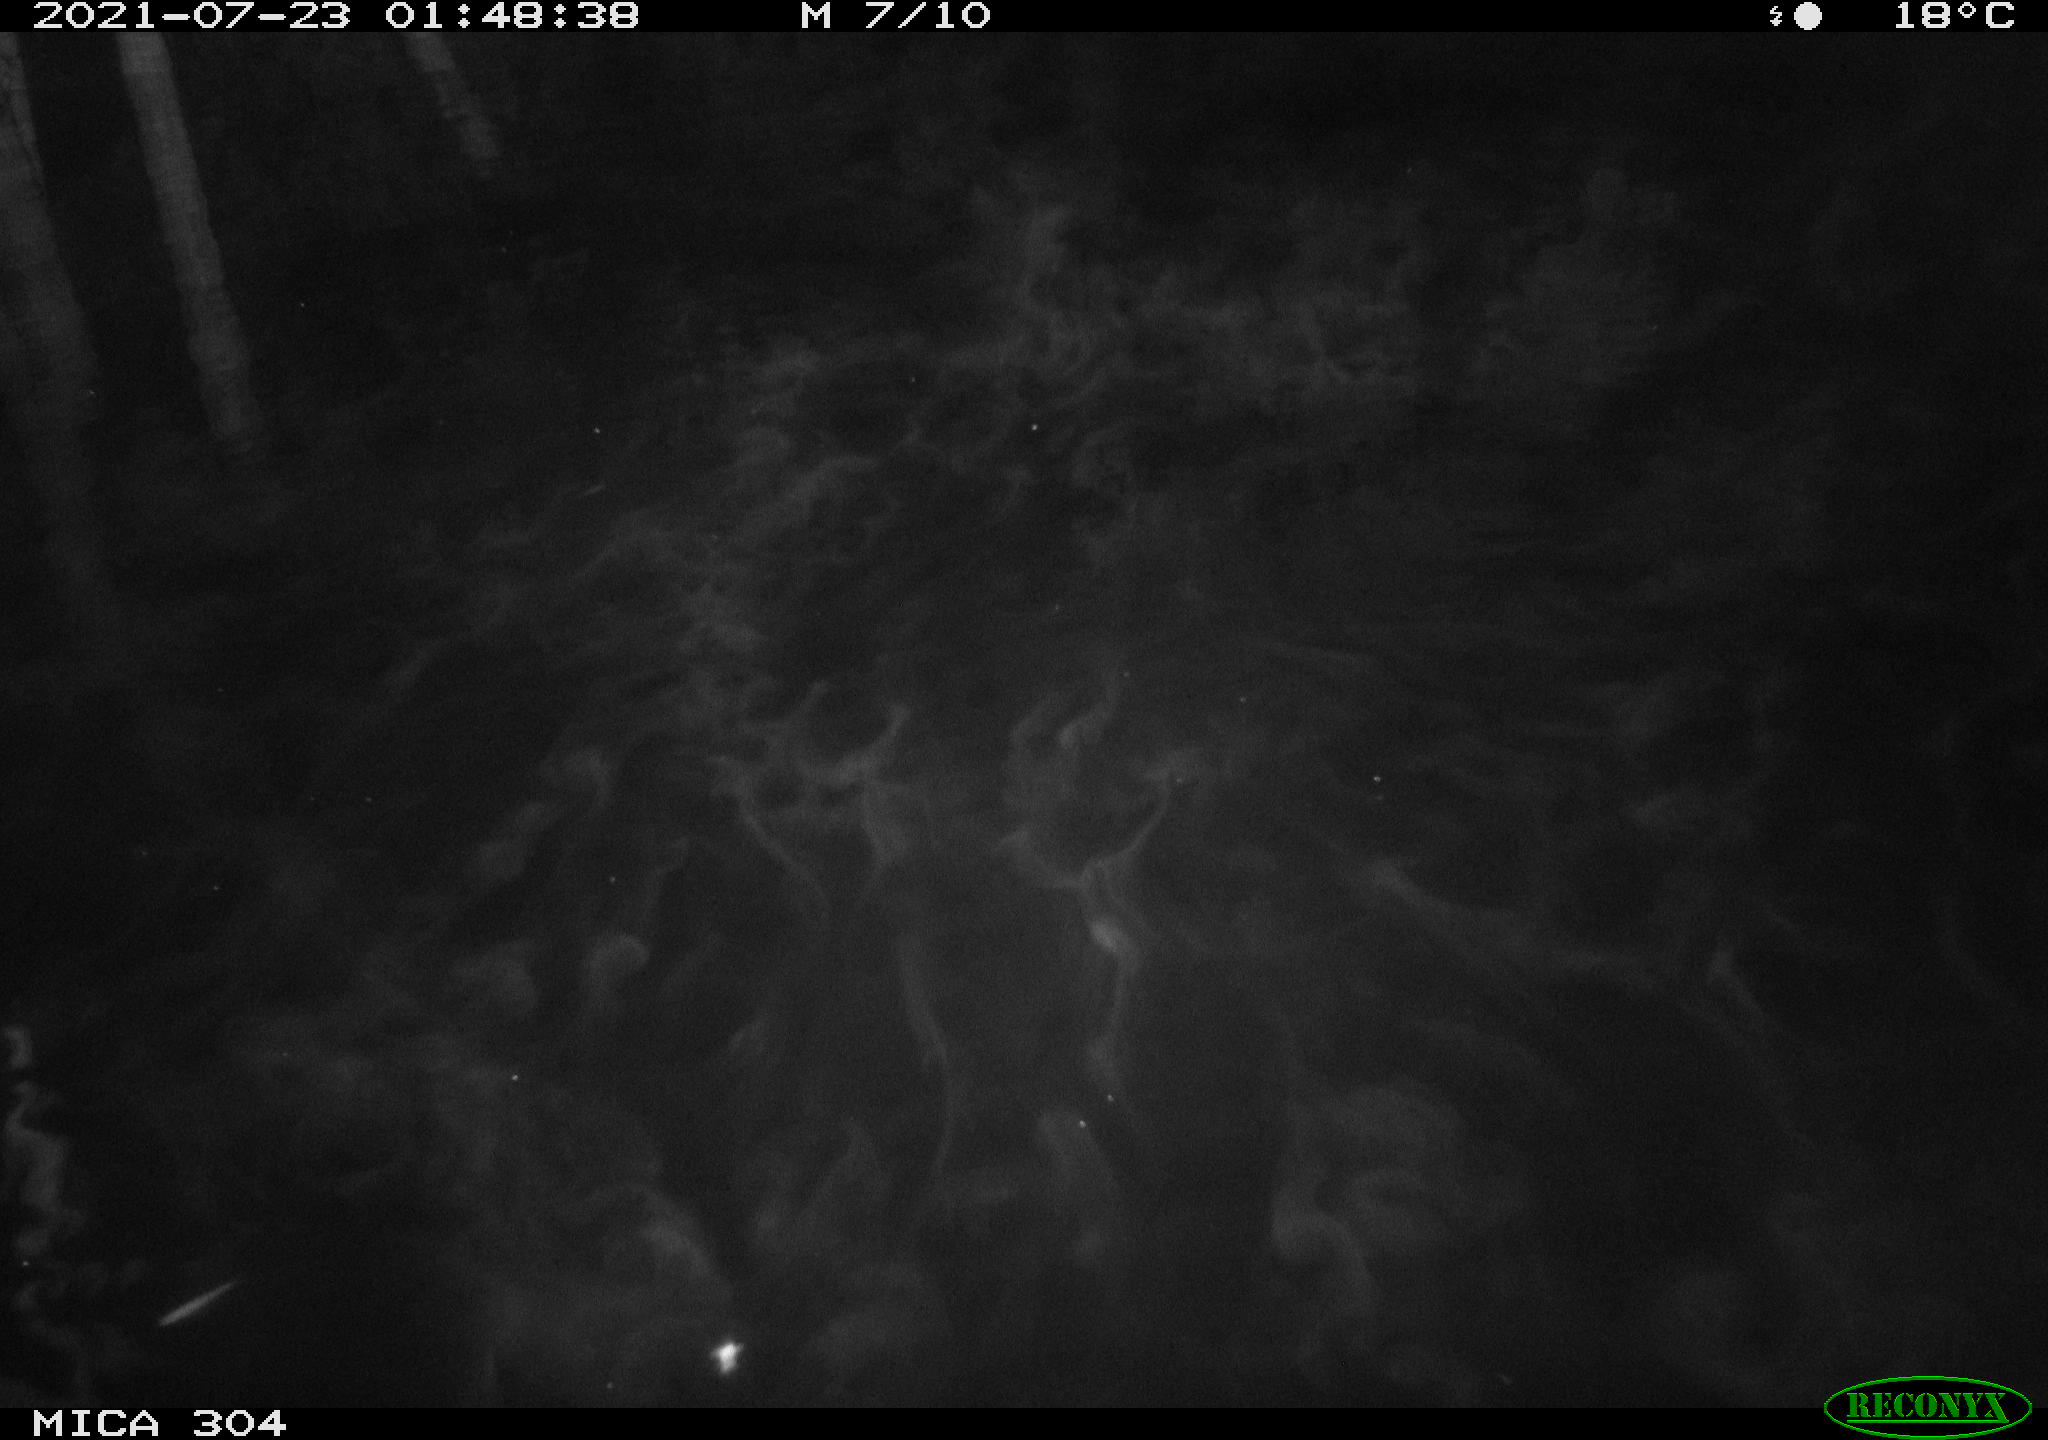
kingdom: Animalia
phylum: Chordata
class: Aves
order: Anseriformes
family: Anatidae
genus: Anas
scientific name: Anas platyrhynchos
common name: Mallard
